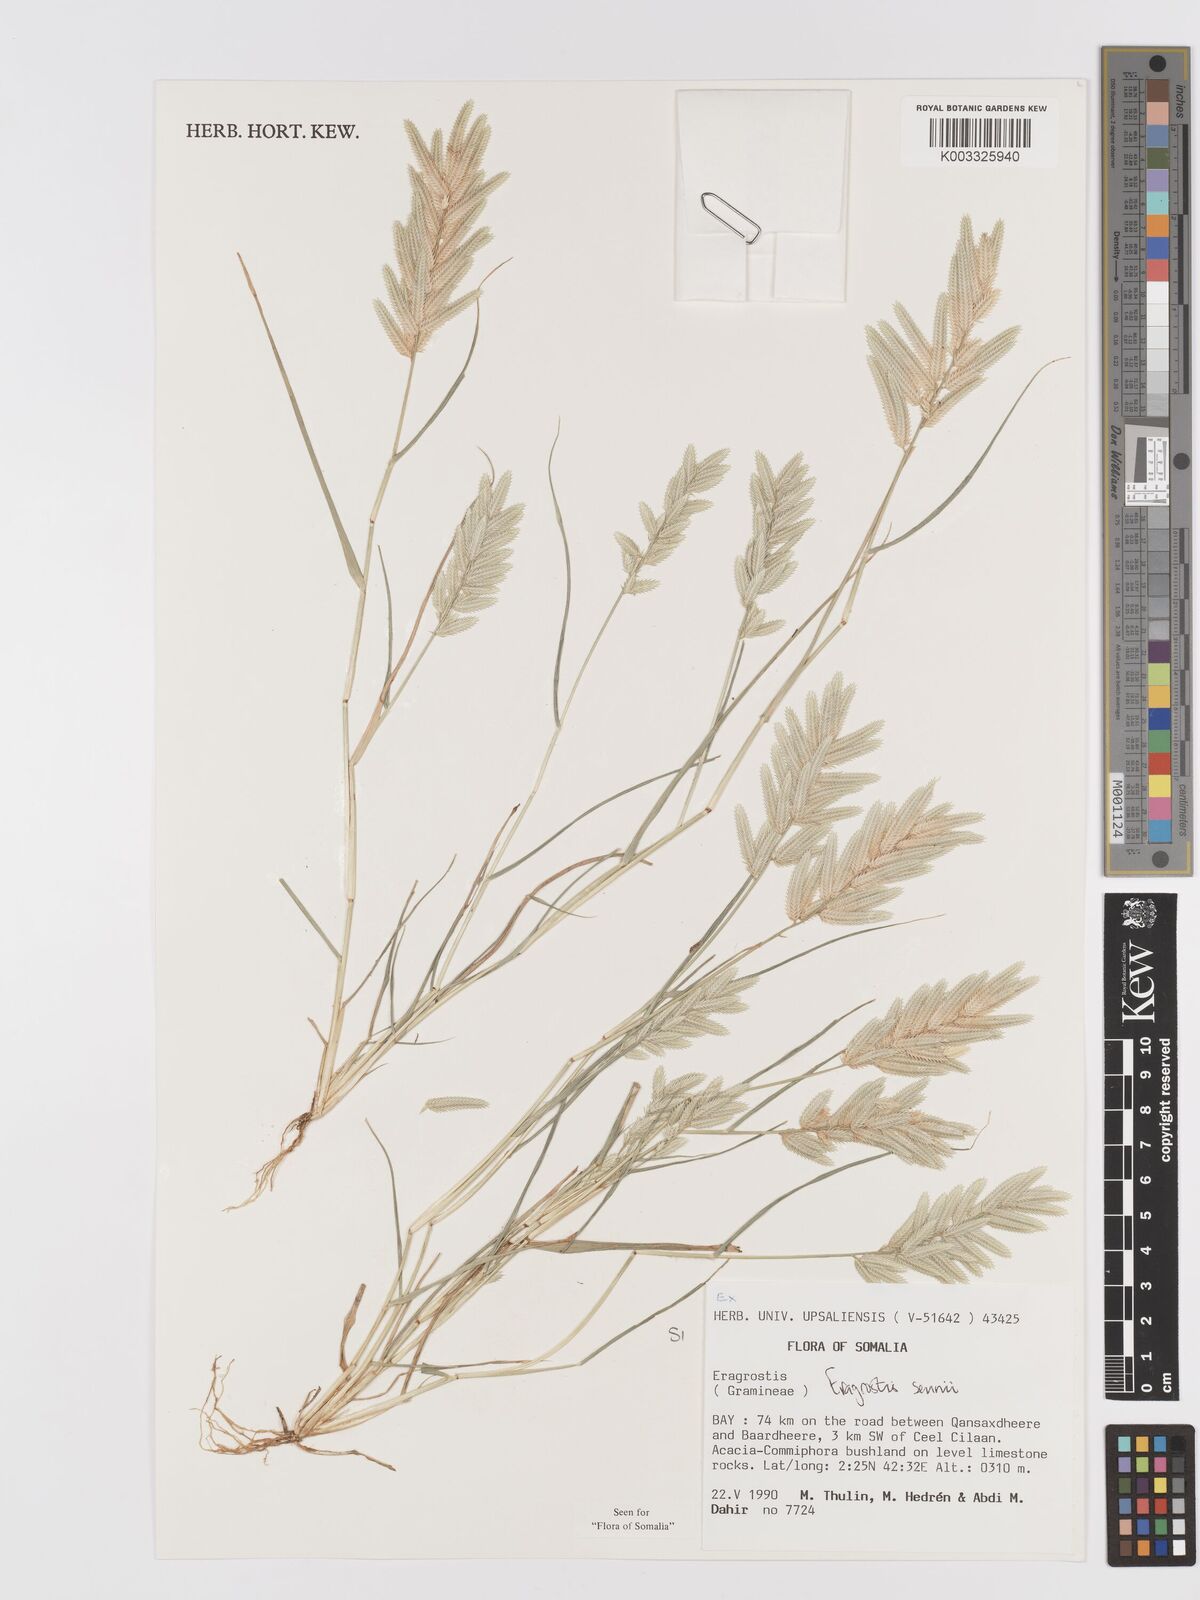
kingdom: Plantae
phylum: Tracheophyta
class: Liliopsida
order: Poales
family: Poaceae
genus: Eragrostis
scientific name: Eragrostis sennii
